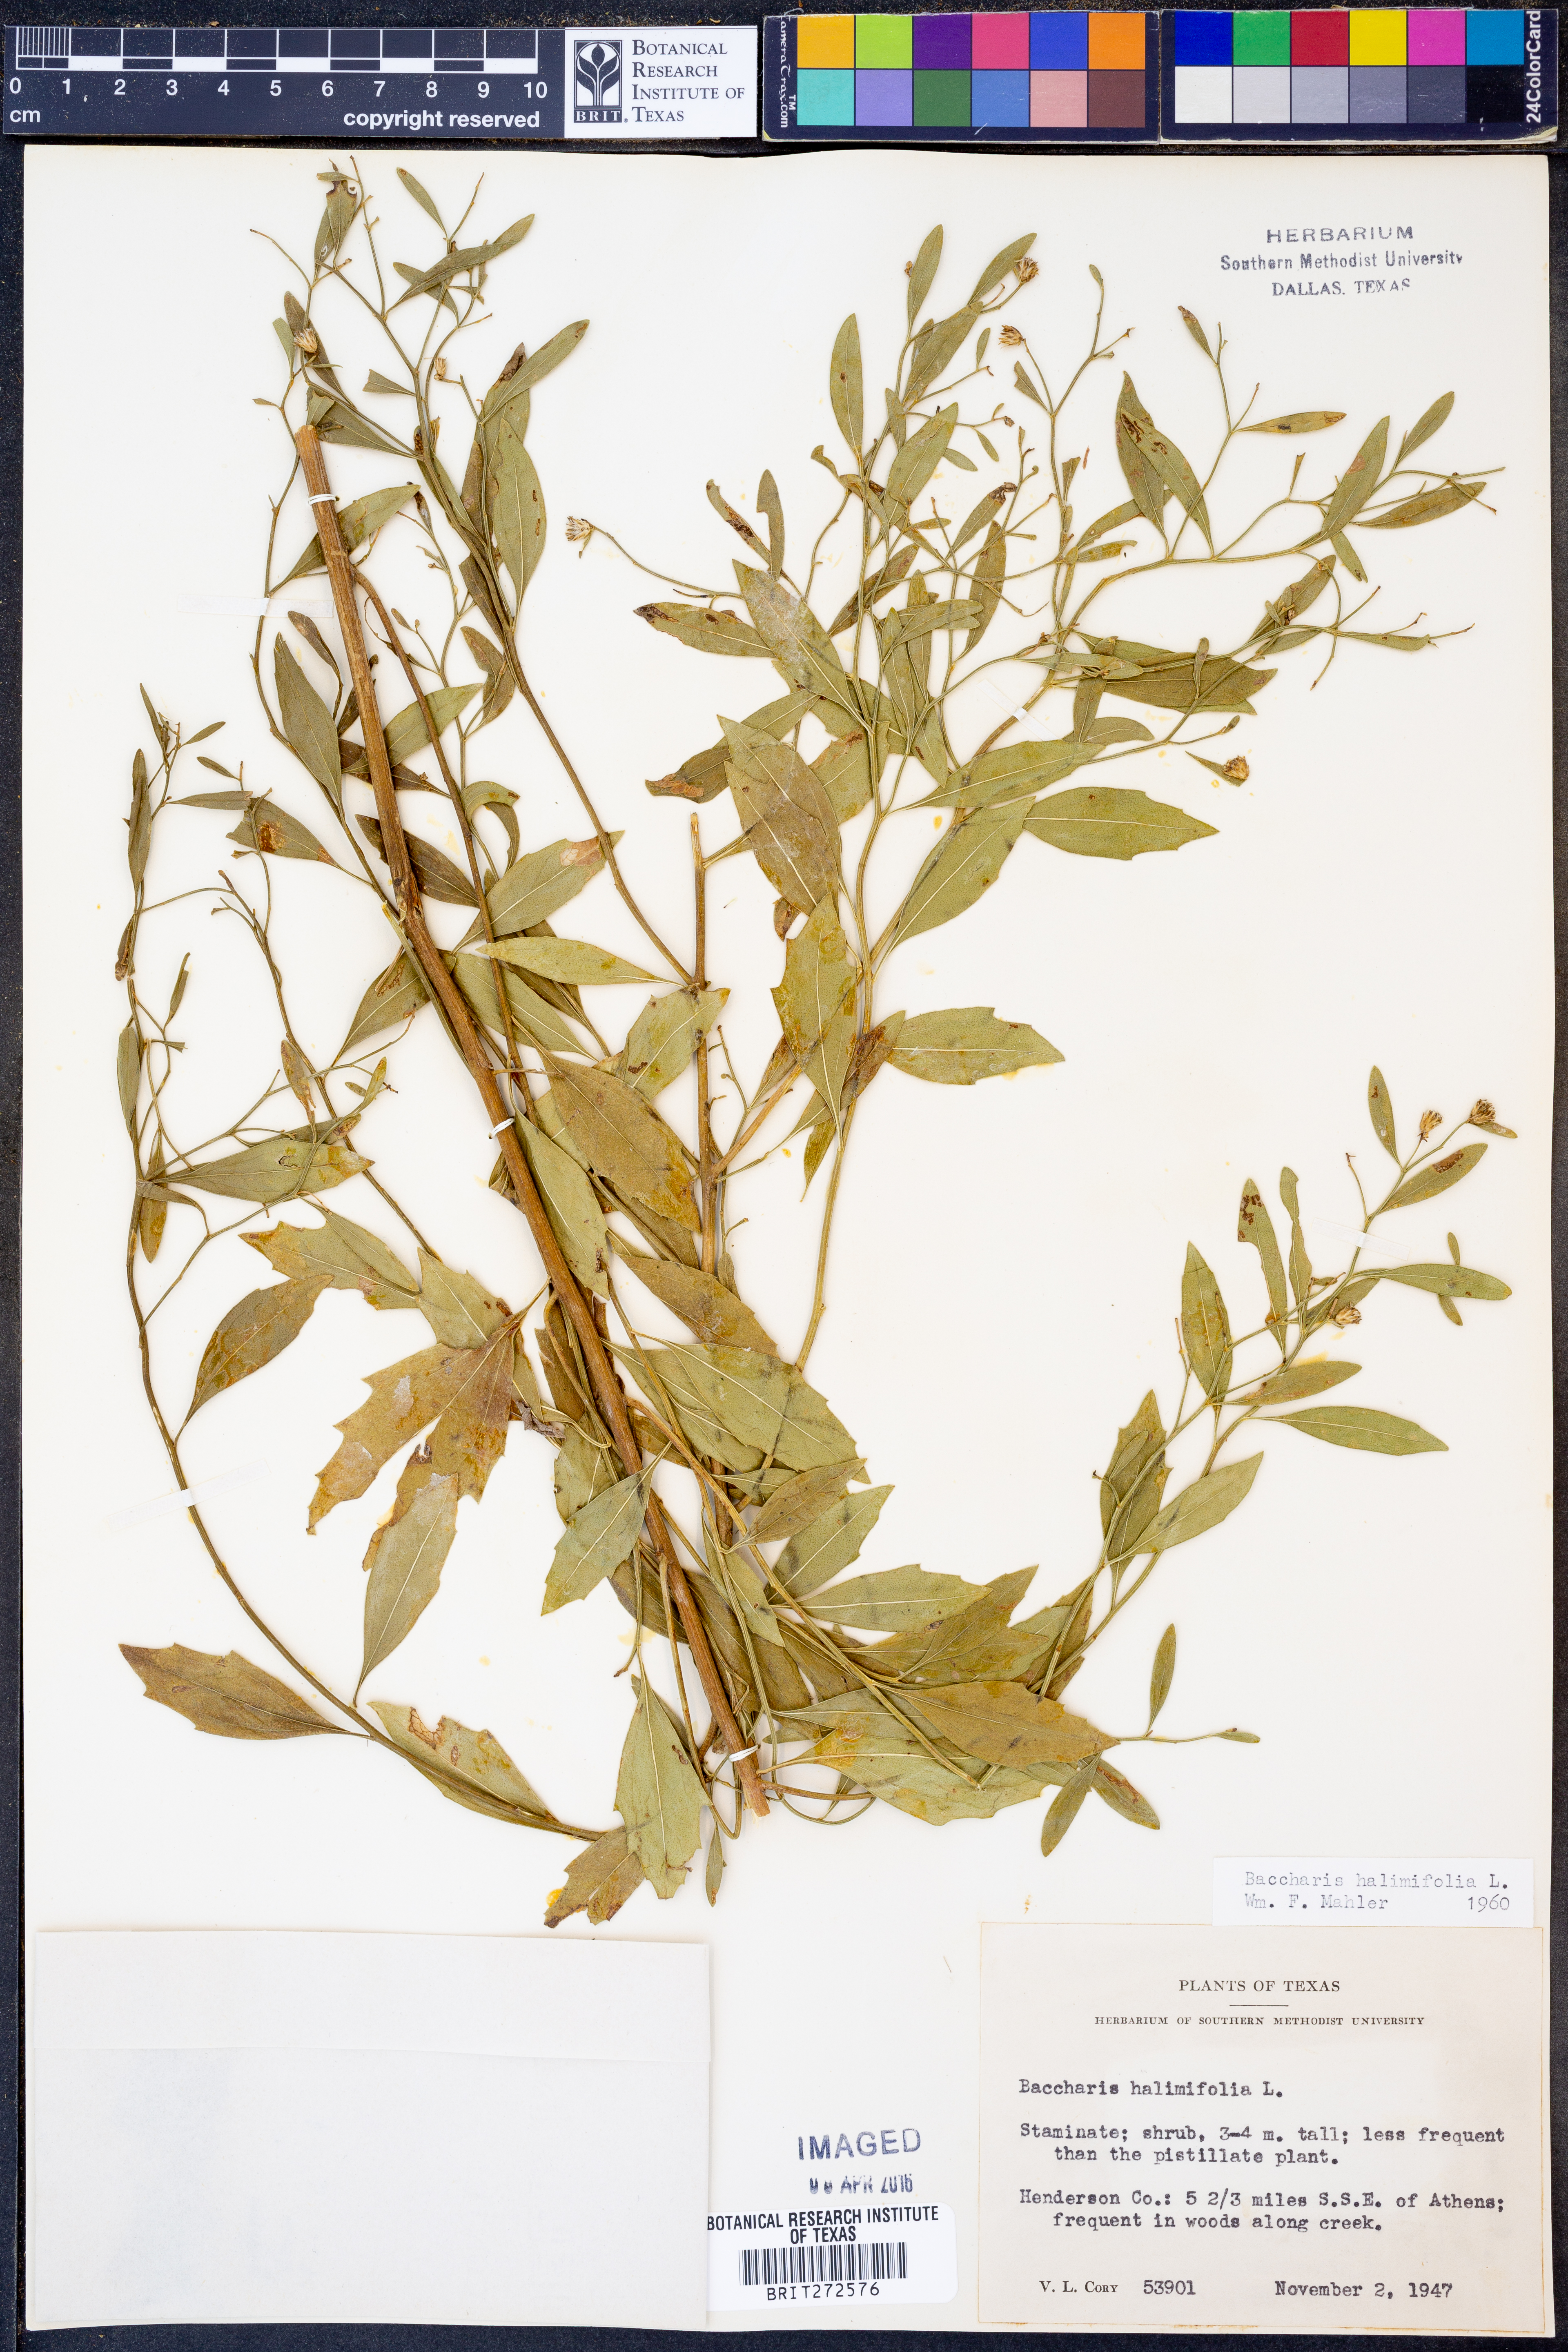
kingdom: Plantae
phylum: Tracheophyta
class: Magnoliopsida
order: Asterales
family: Asteraceae
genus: Nidorella
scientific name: Nidorella ivifolia
